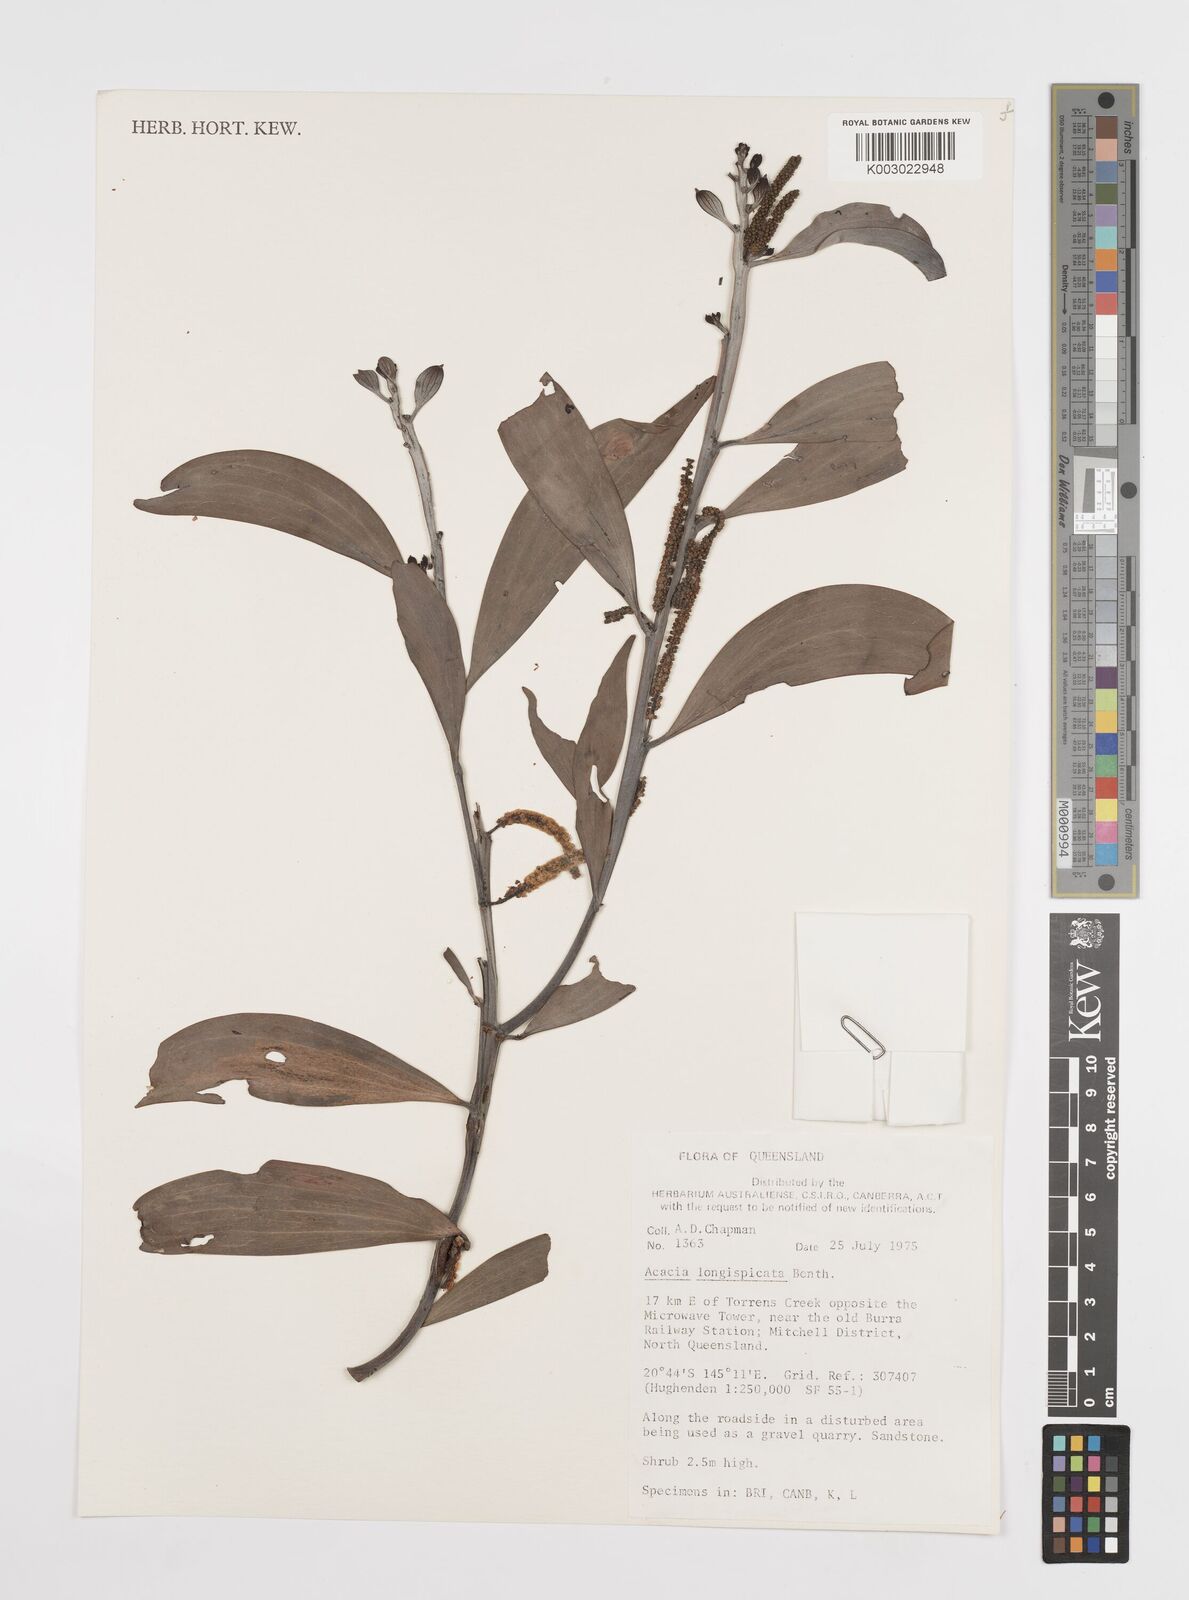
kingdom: Plantae
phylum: Tracheophyta
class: Magnoliopsida
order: Fabales
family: Fabaceae
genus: Acacia
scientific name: Acacia longispicata
